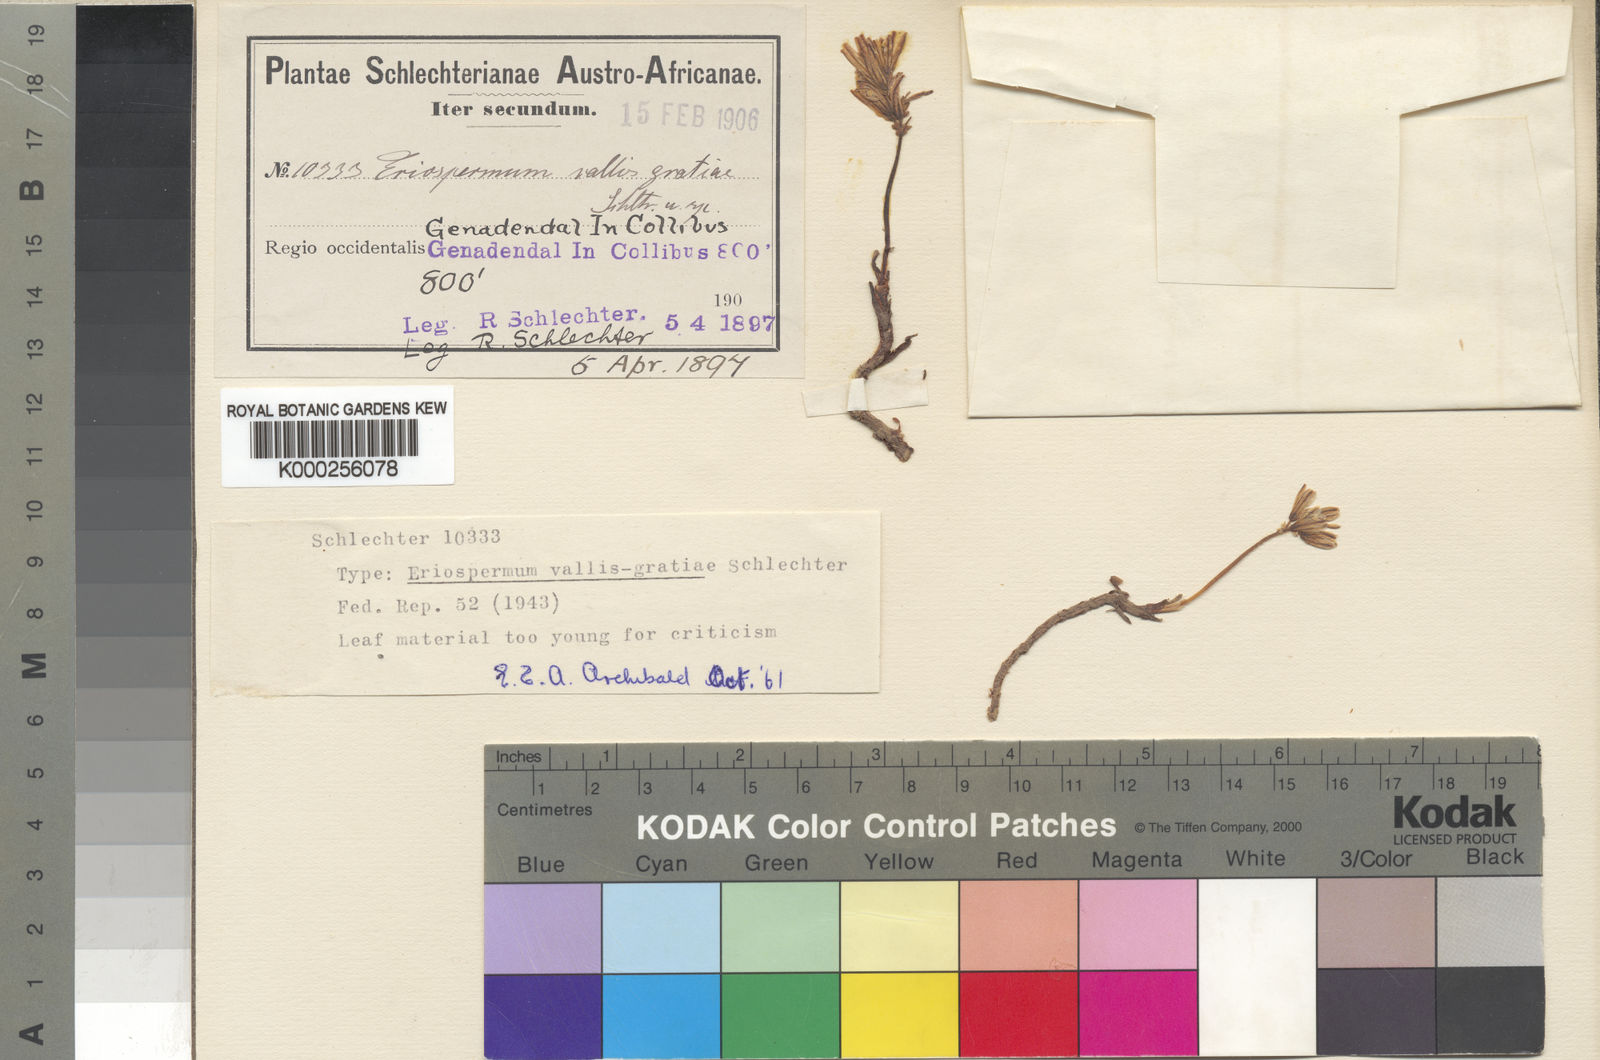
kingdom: Plantae
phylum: Tracheophyta
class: Liliopsida
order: Asparagales
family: Asparagaceae
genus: Eriospermum
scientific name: Eriospermum paradoxum
